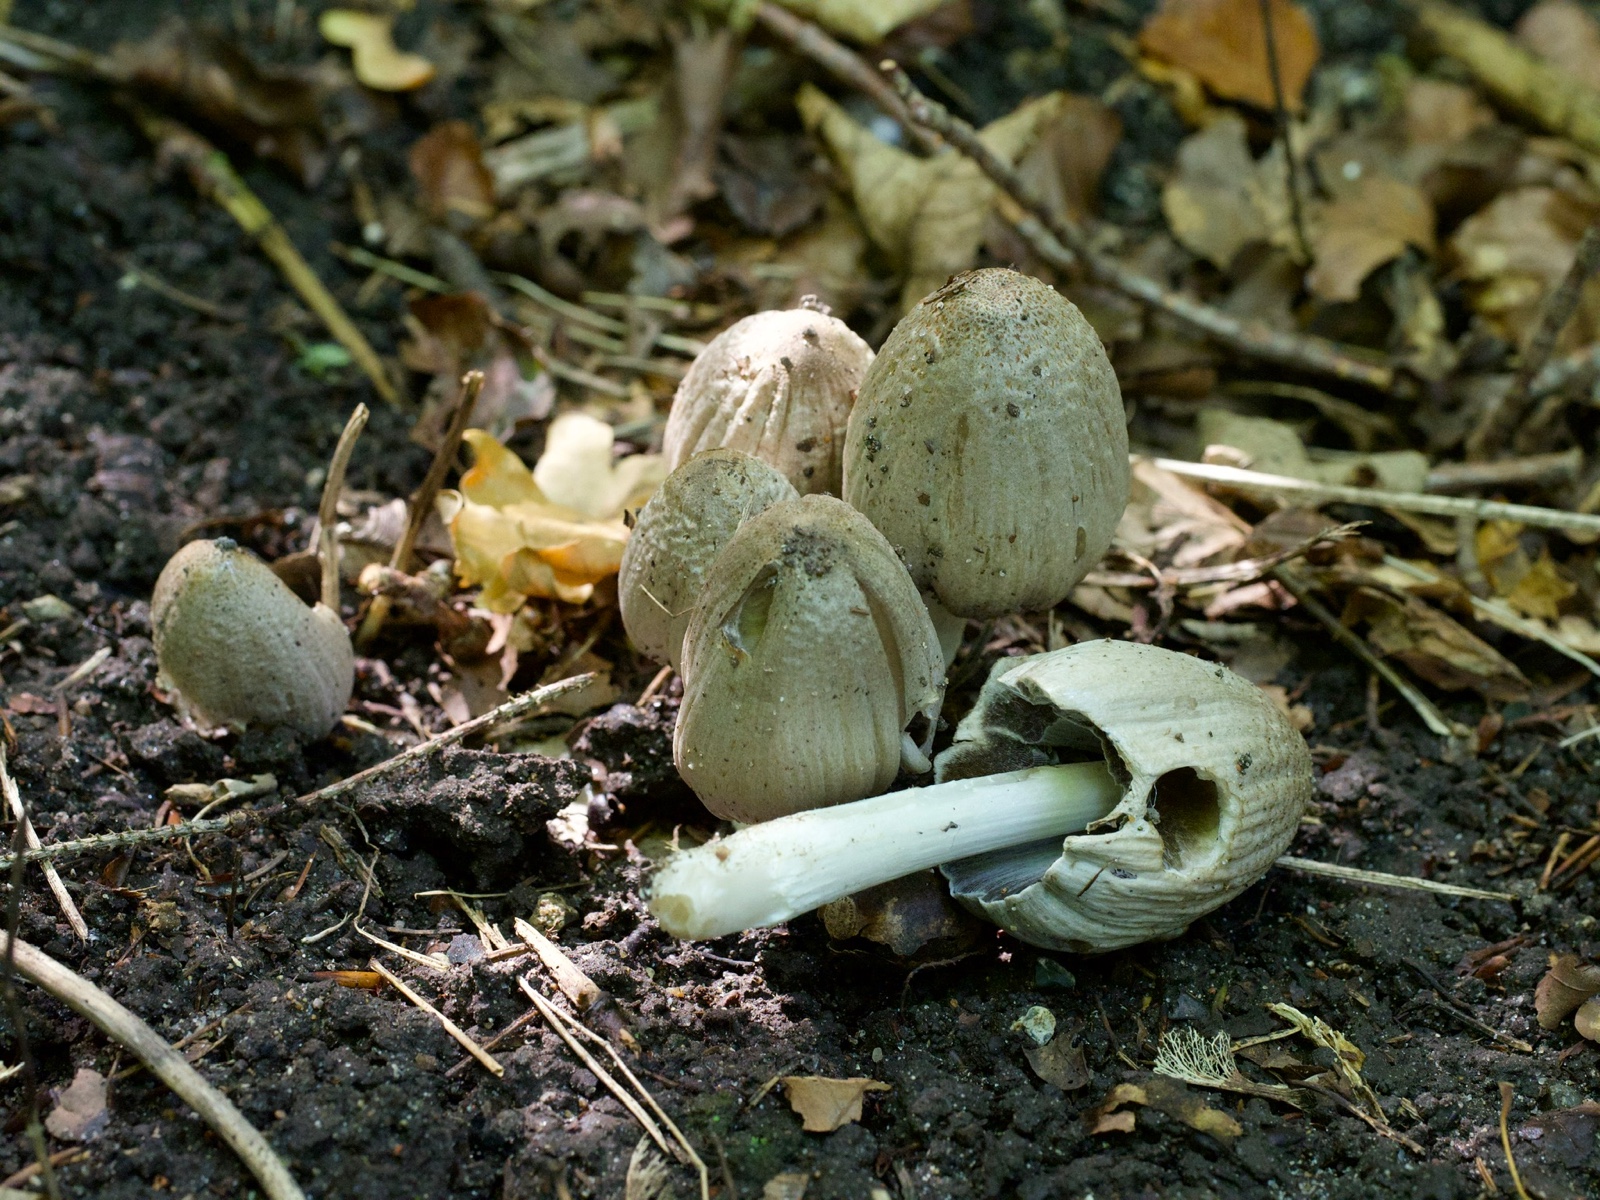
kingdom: Fungi
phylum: Basidiomycota
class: Agaricomycetes
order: Agaricales
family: Psathyrellaceae
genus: Coprinopsis
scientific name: Coprinopsis atramentaria
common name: almindelig blækhat
